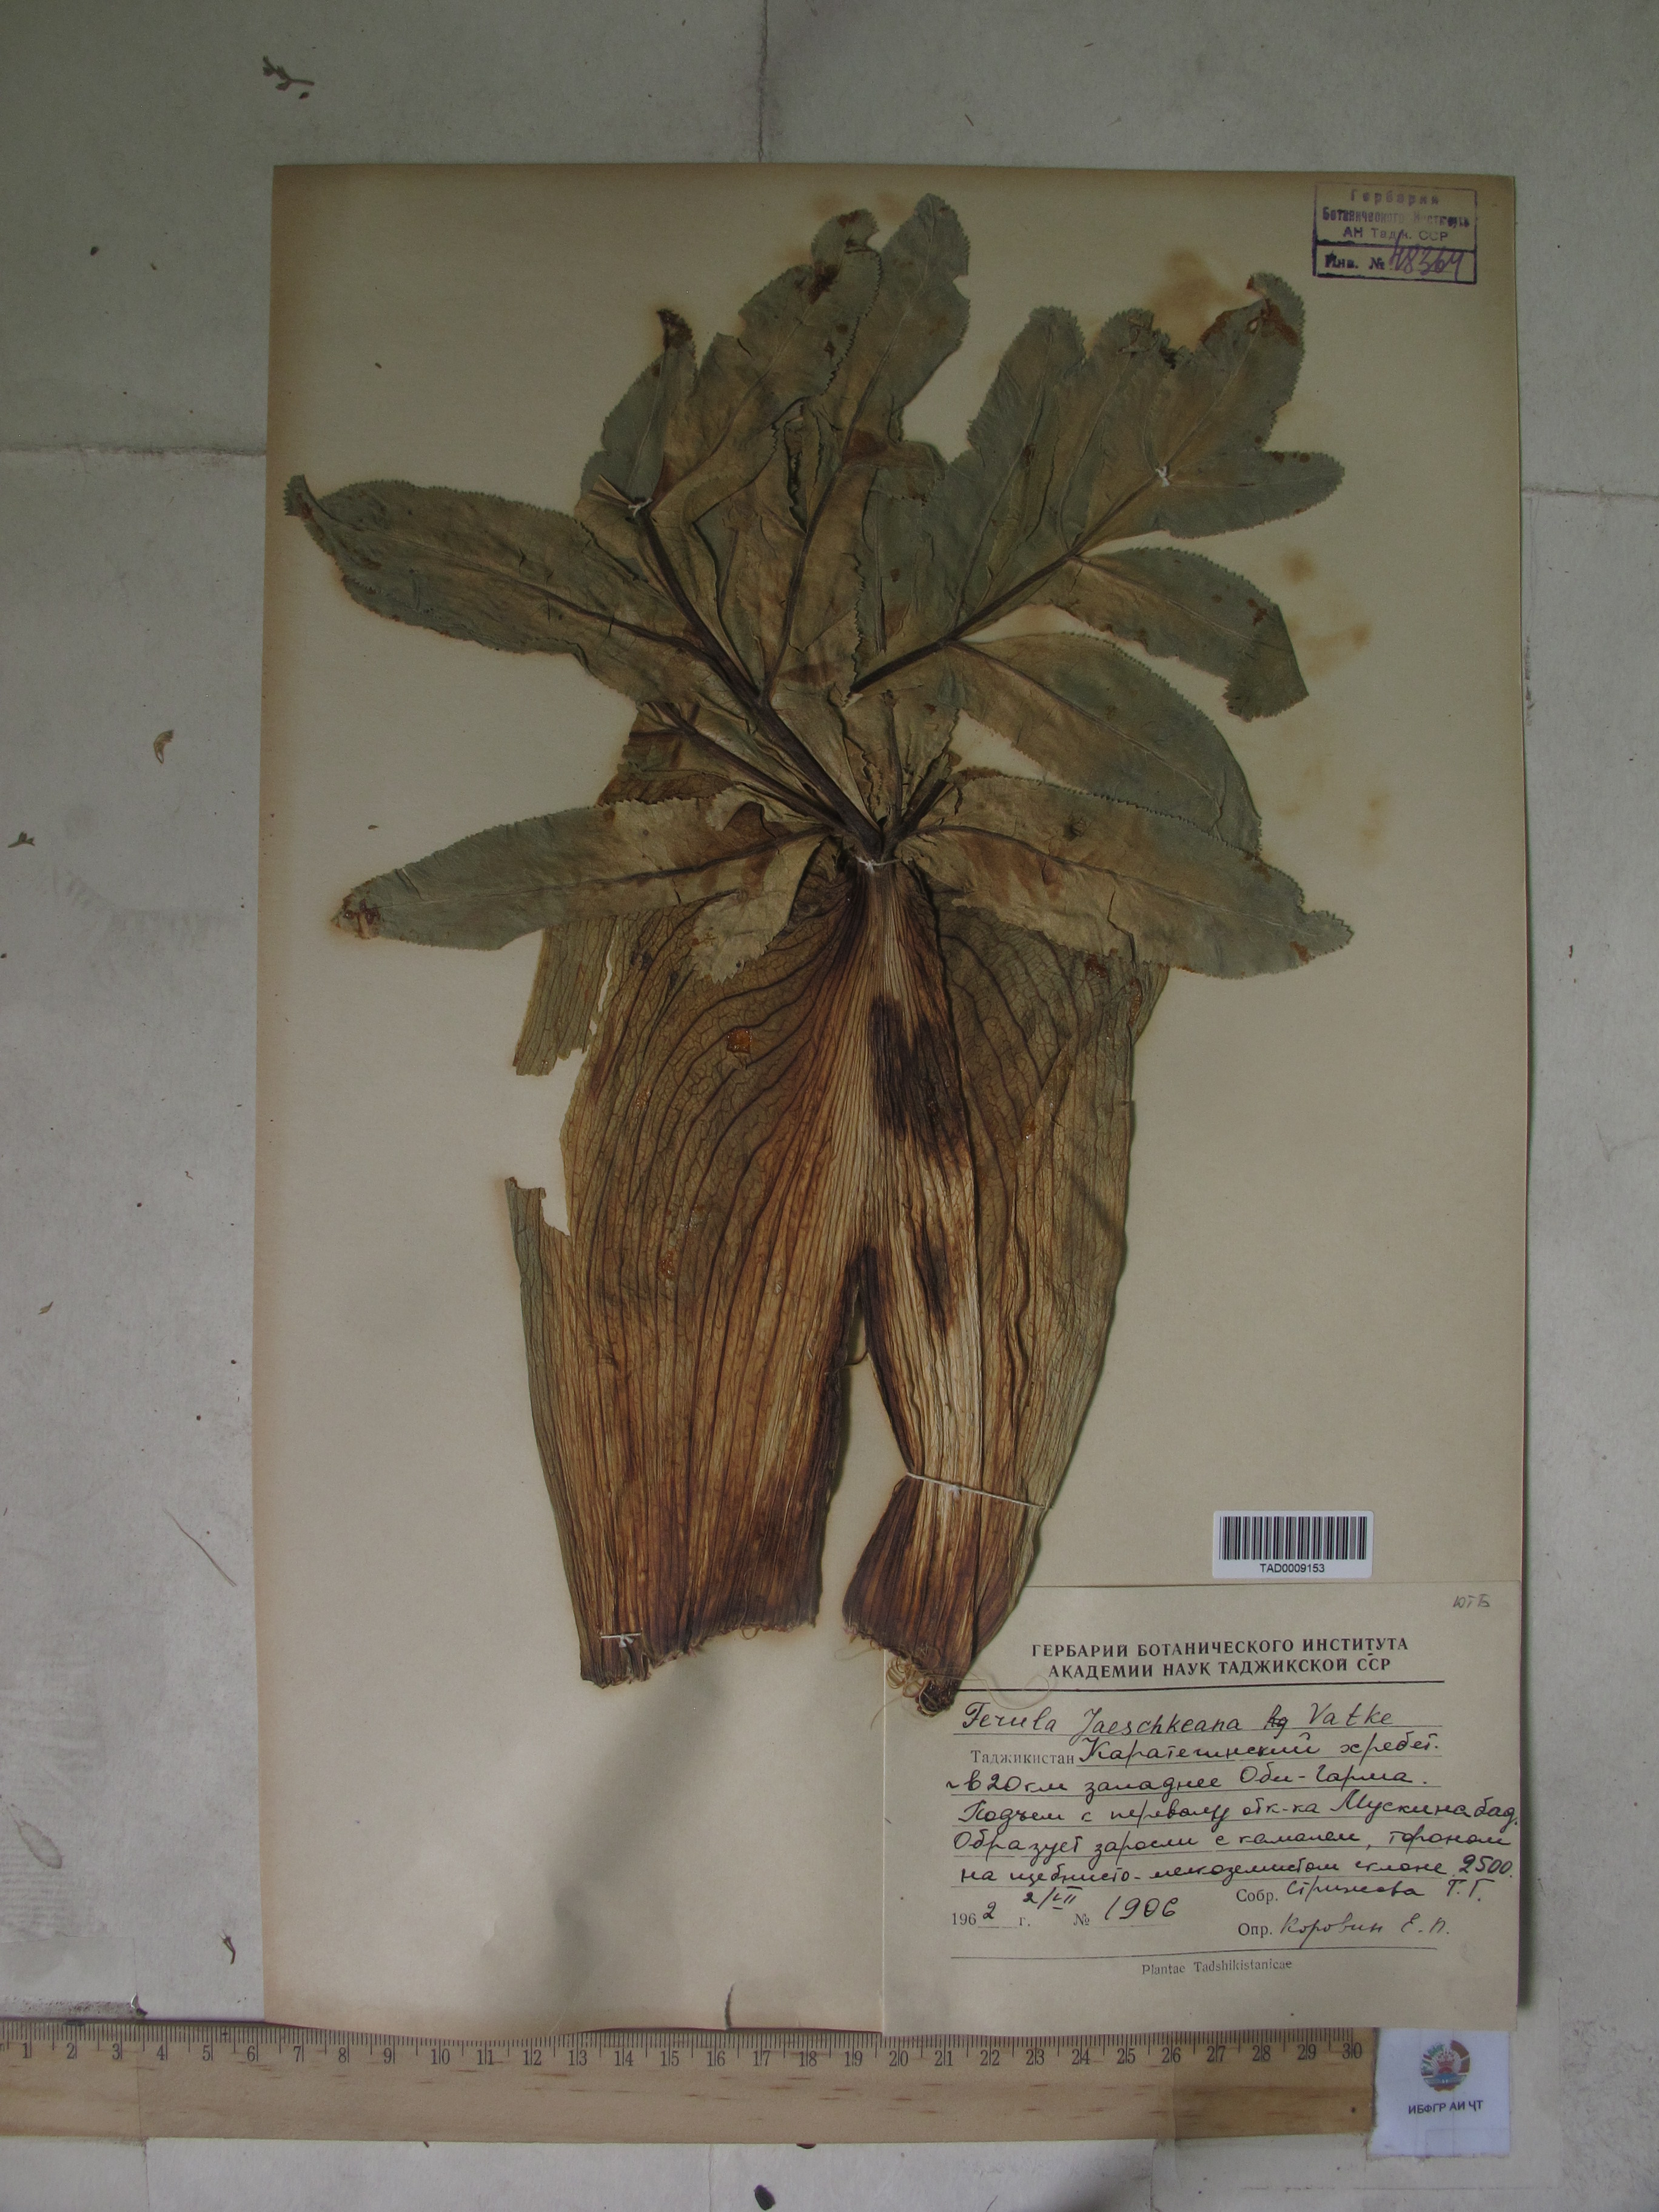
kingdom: Plantae
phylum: Tracheophyta
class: Magnoliopsida
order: Apiales
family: Apiaceae
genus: Ferula
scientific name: Ferula jaeschkeana
